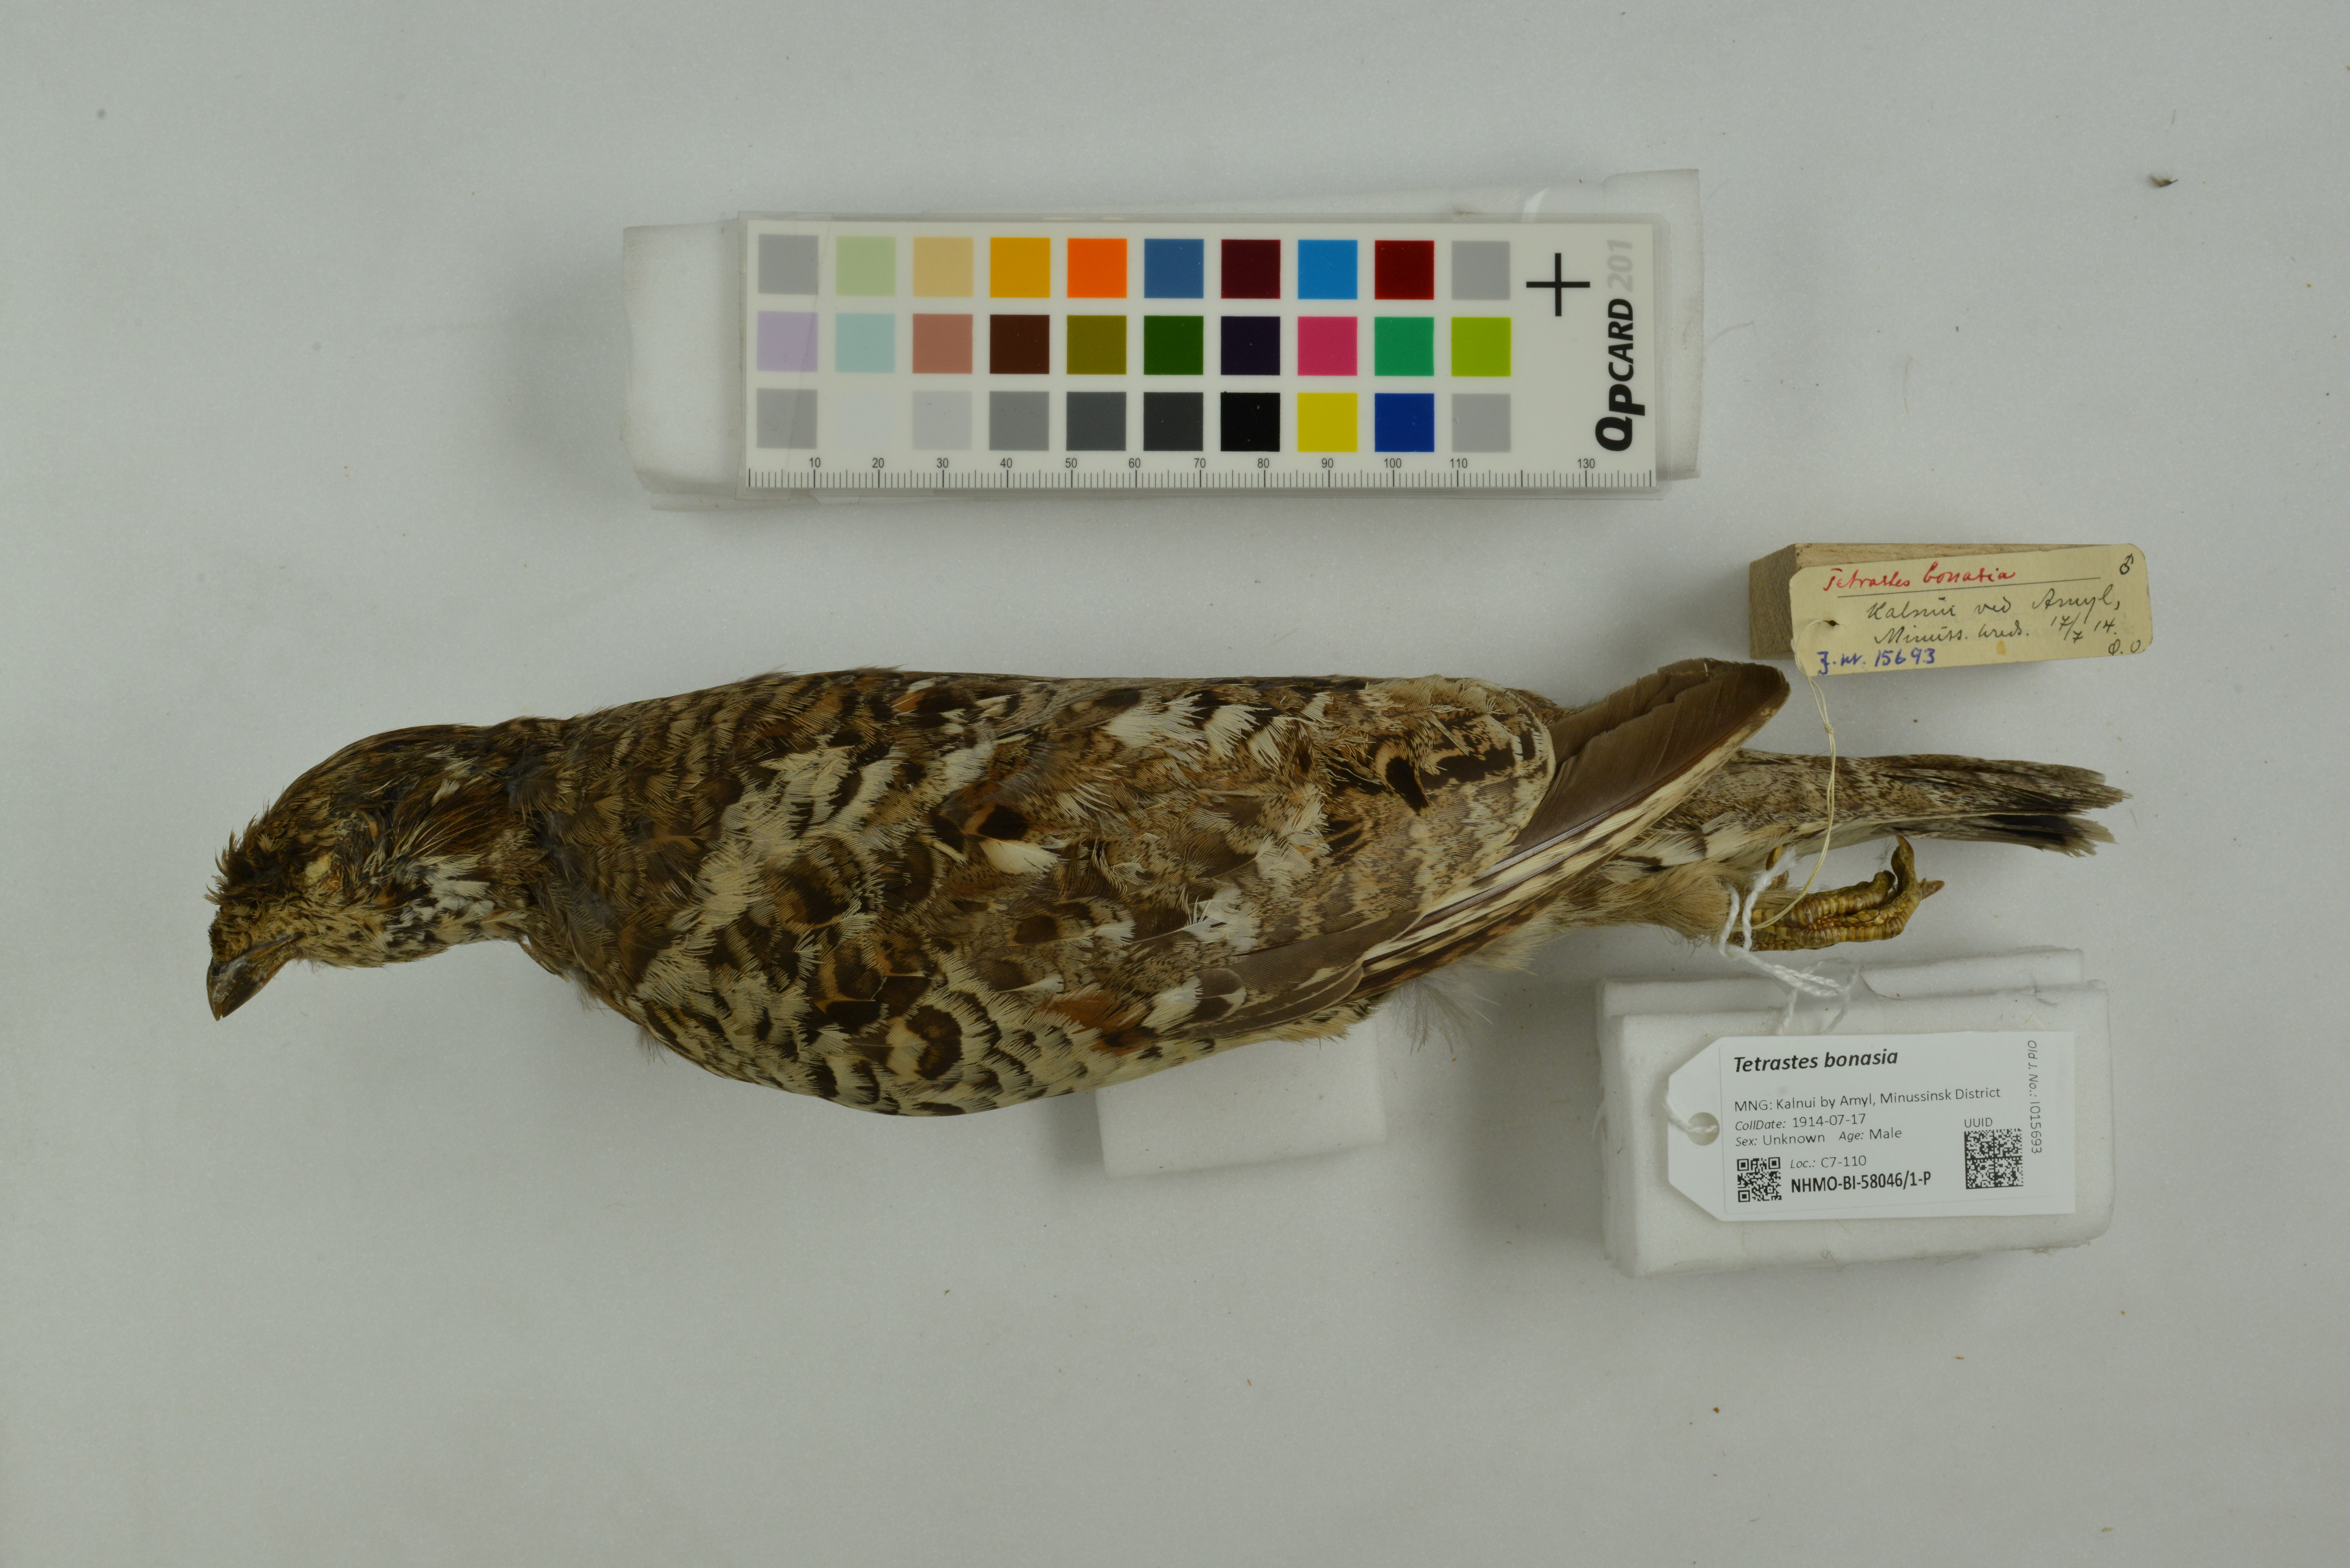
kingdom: Animalia
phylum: Chordata
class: Aves
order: Galliformes
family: Phasianidae
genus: Tetrastes
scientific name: Tetrastes bonasia
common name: Hazel grouse
